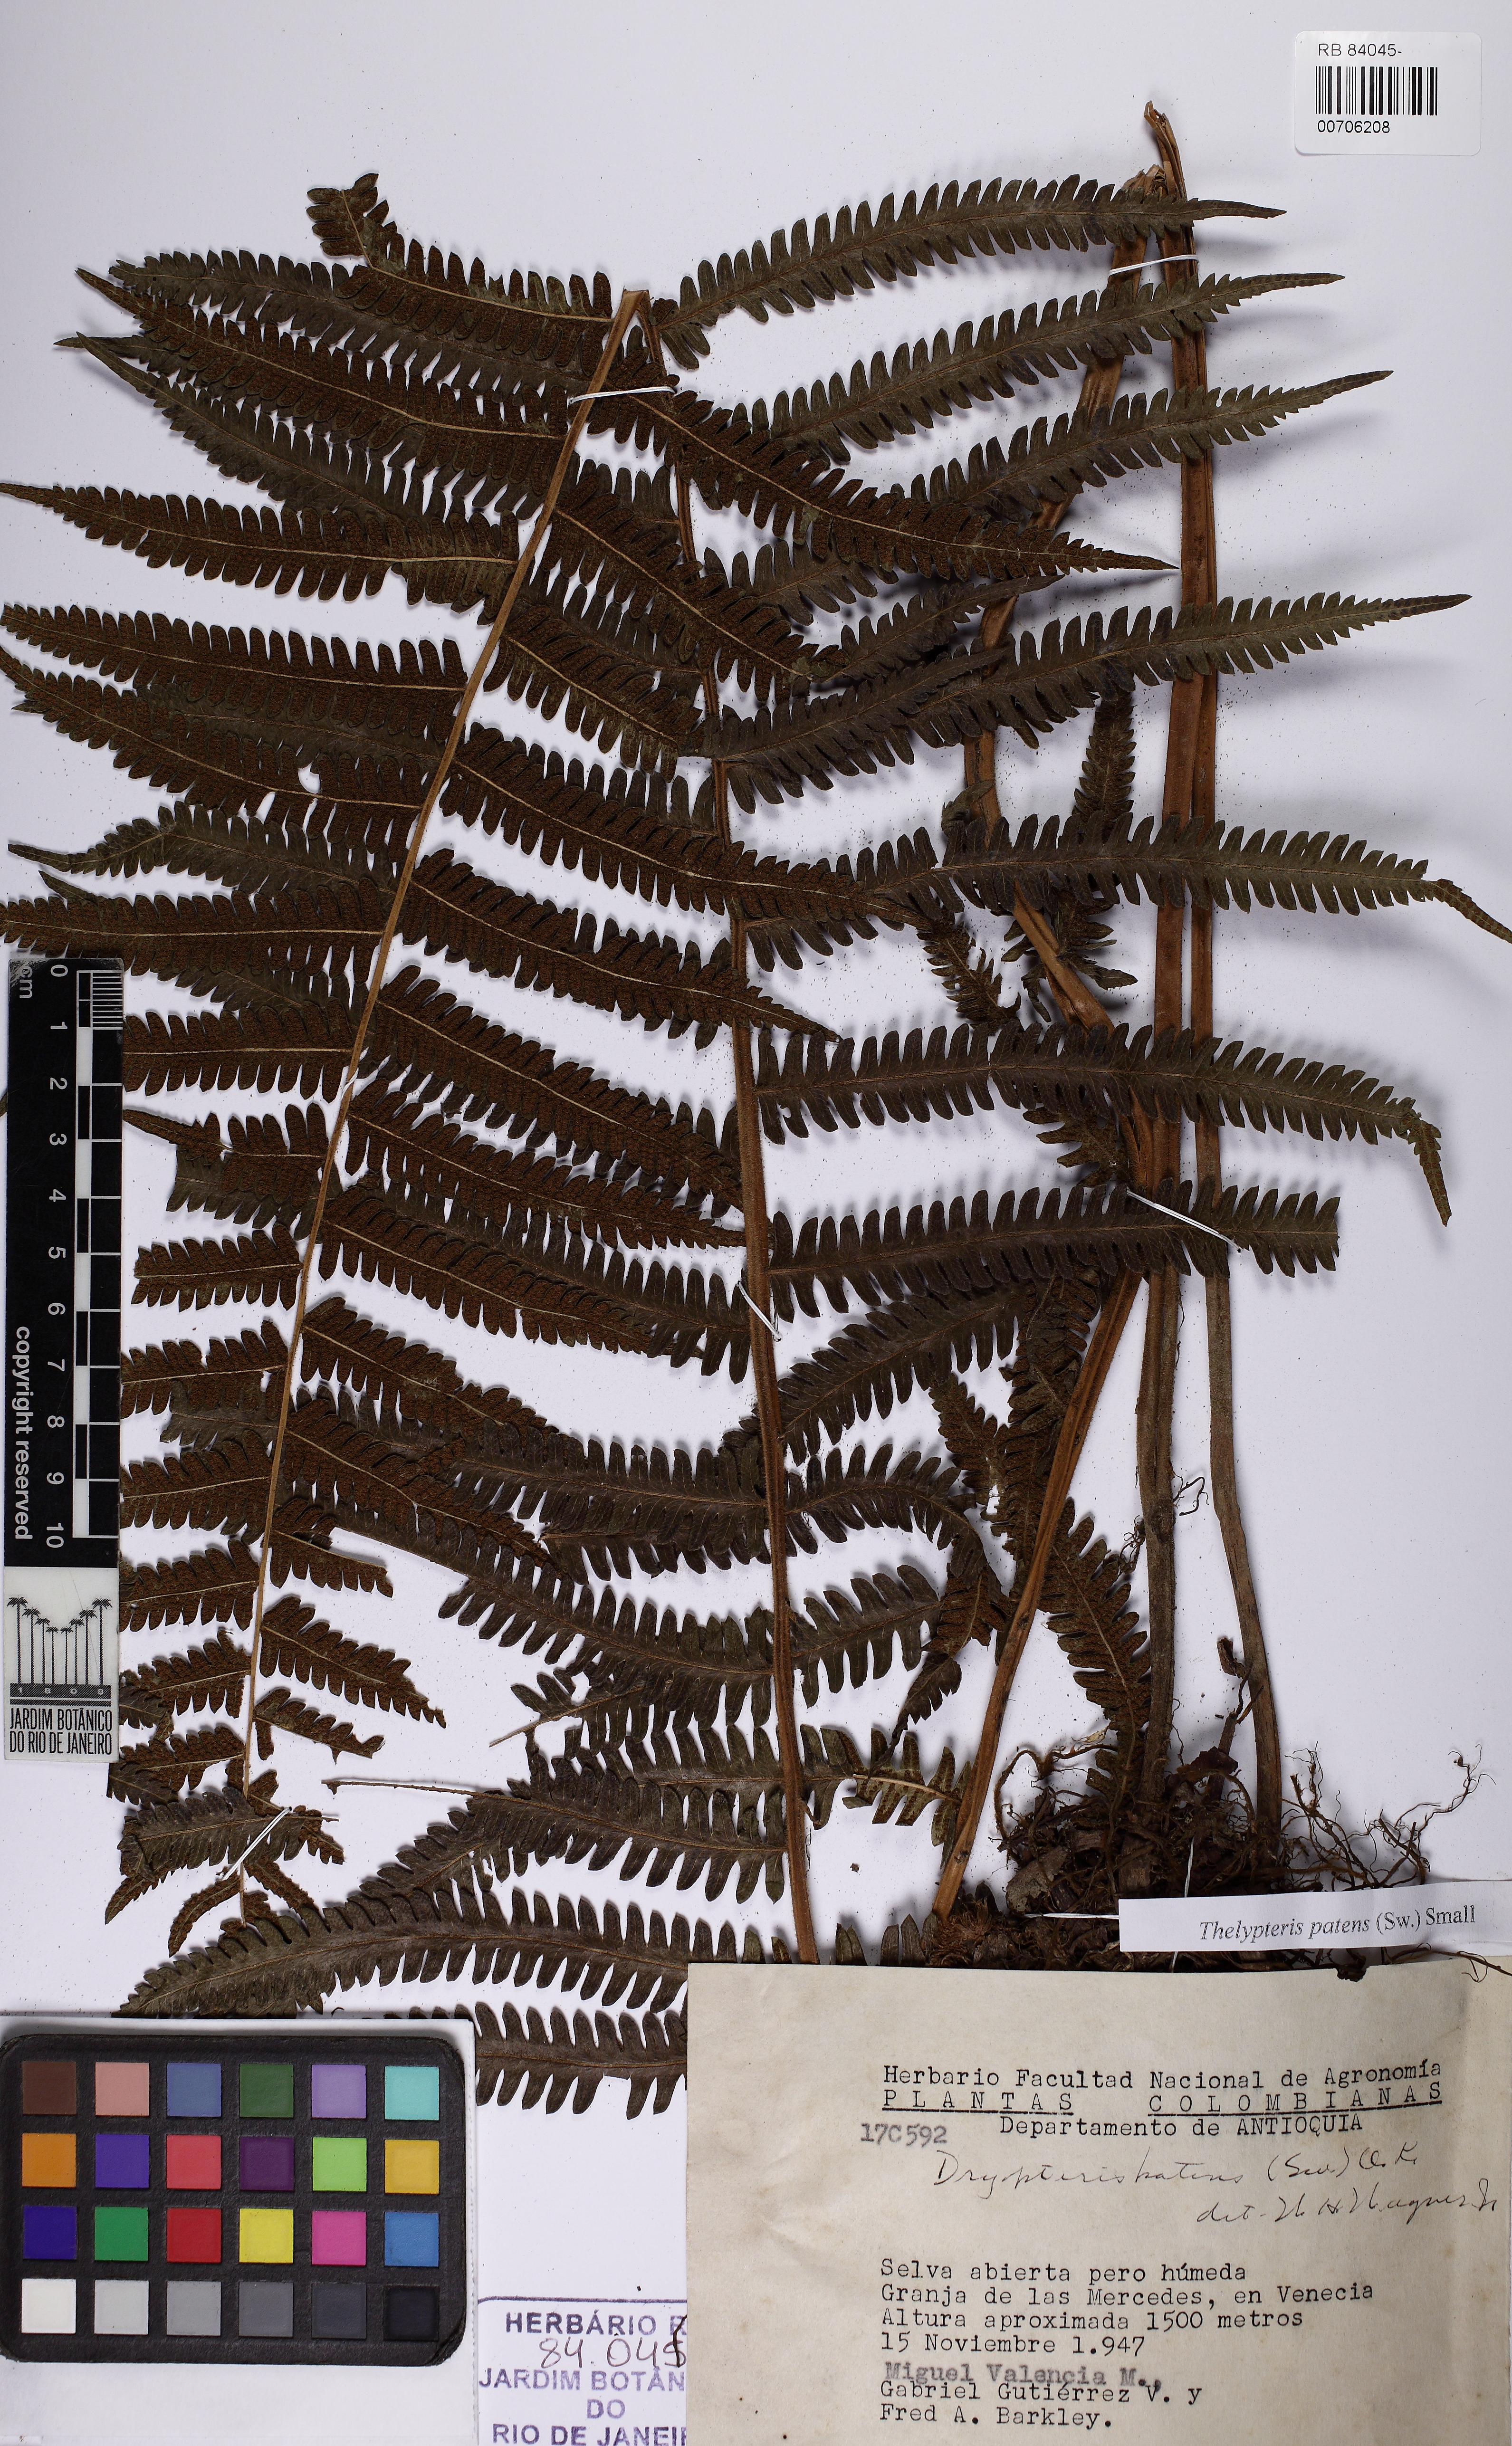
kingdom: Plantae
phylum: Tracheophyta
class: Polypodiopsida
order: Polypodiales
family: Thelypteridaceae
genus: Pelazoneuron
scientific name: Pelazoneuron patens
